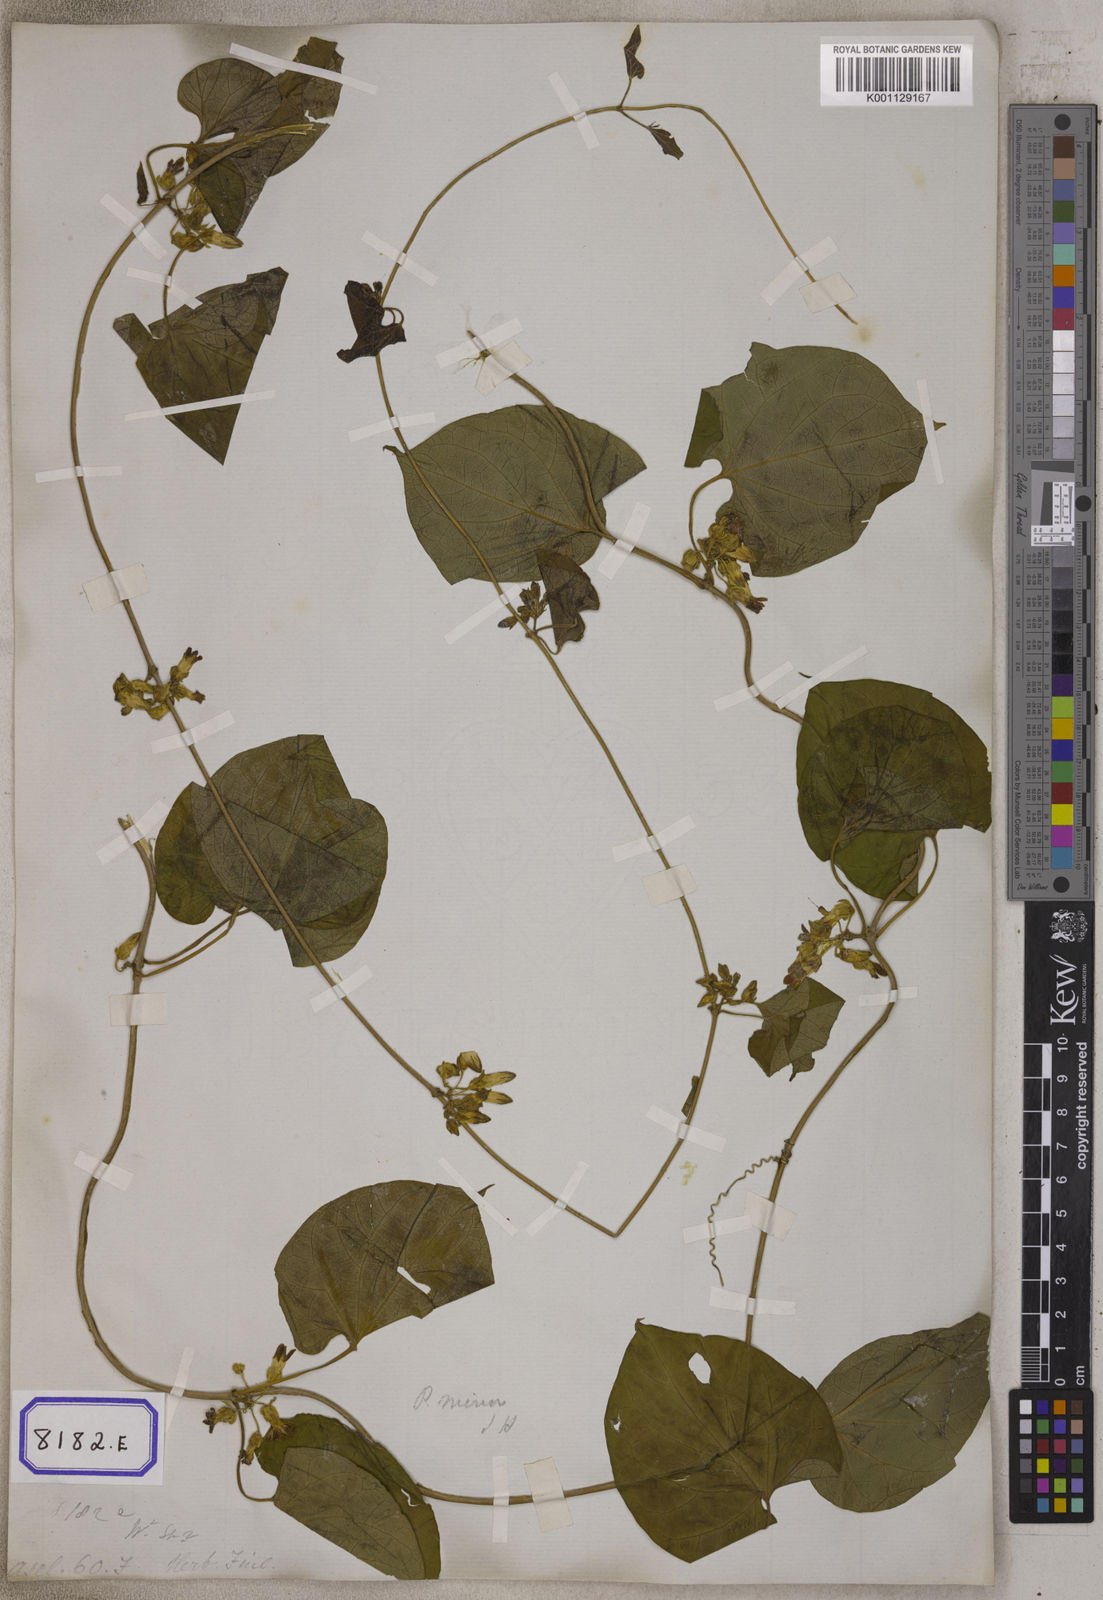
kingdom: Plantae
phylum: Tracheophyta
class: Magnoliopsida
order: Gentianales
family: Apocynaceae
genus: Telosma
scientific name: Telosma cordata
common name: Chinese-violet
